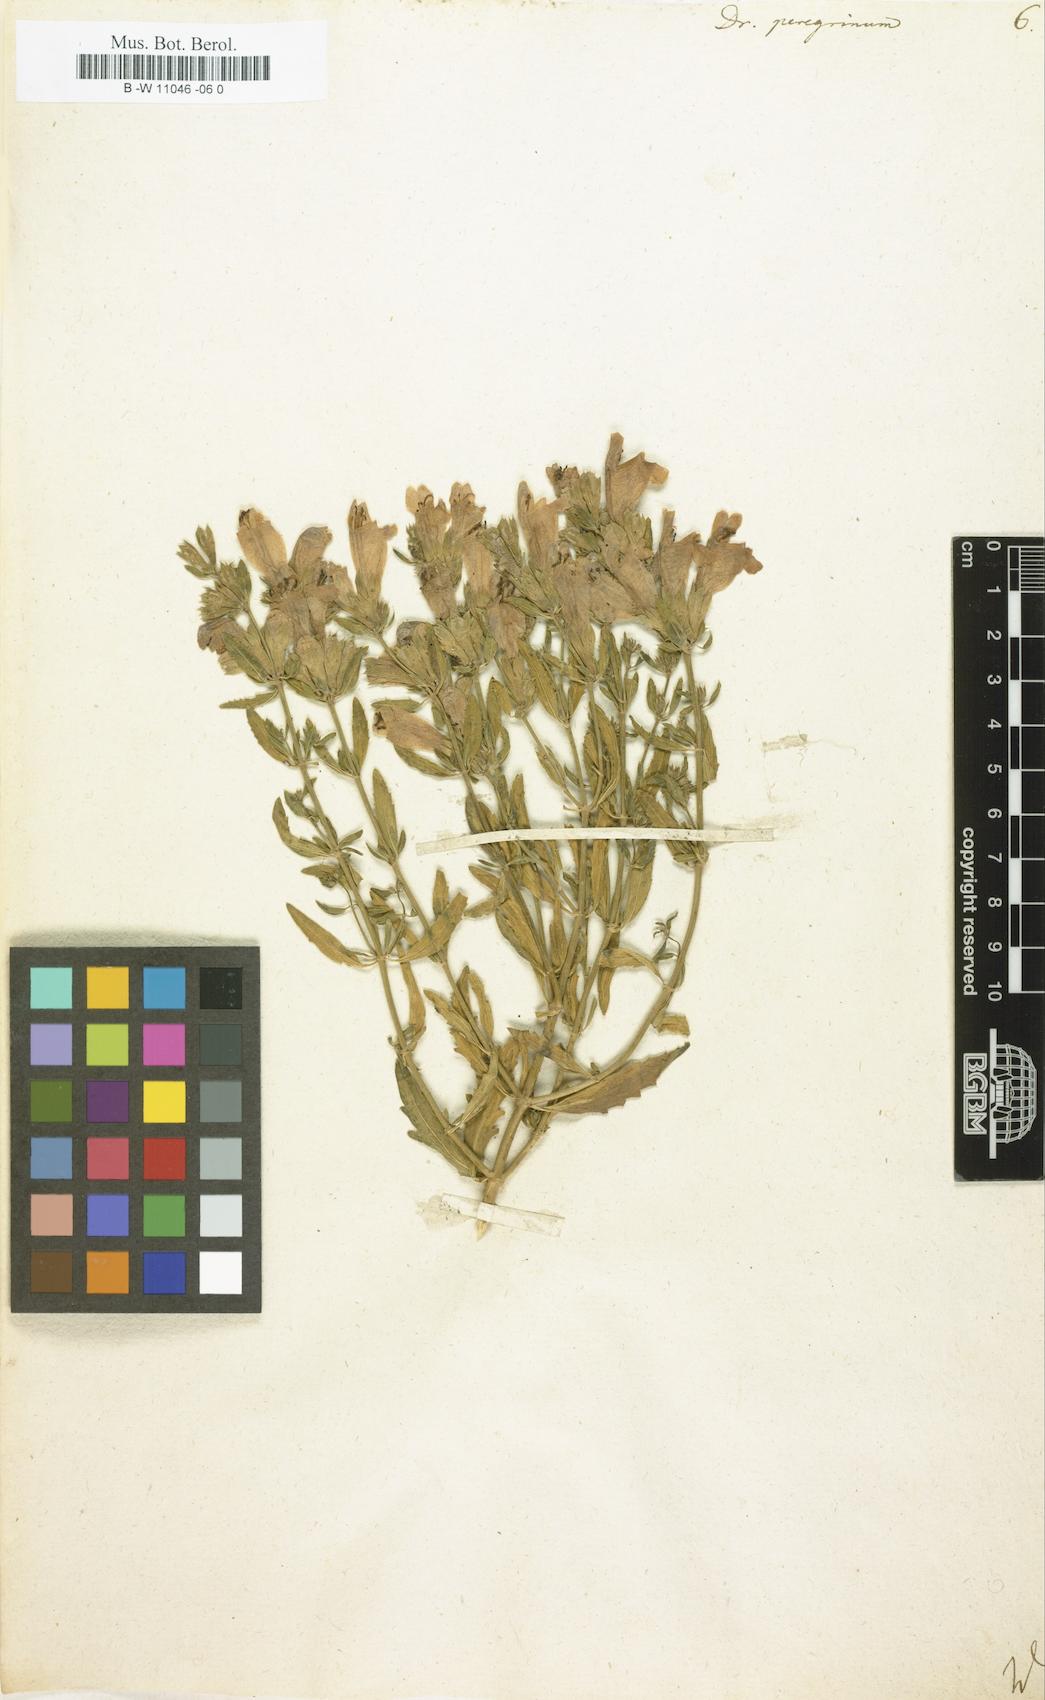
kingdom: Plantae
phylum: Tracheophyta
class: Magnoliopsida
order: Lamiales
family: Lamiaceae
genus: Dracocephalum
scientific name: Dracocephalum peregrinum
